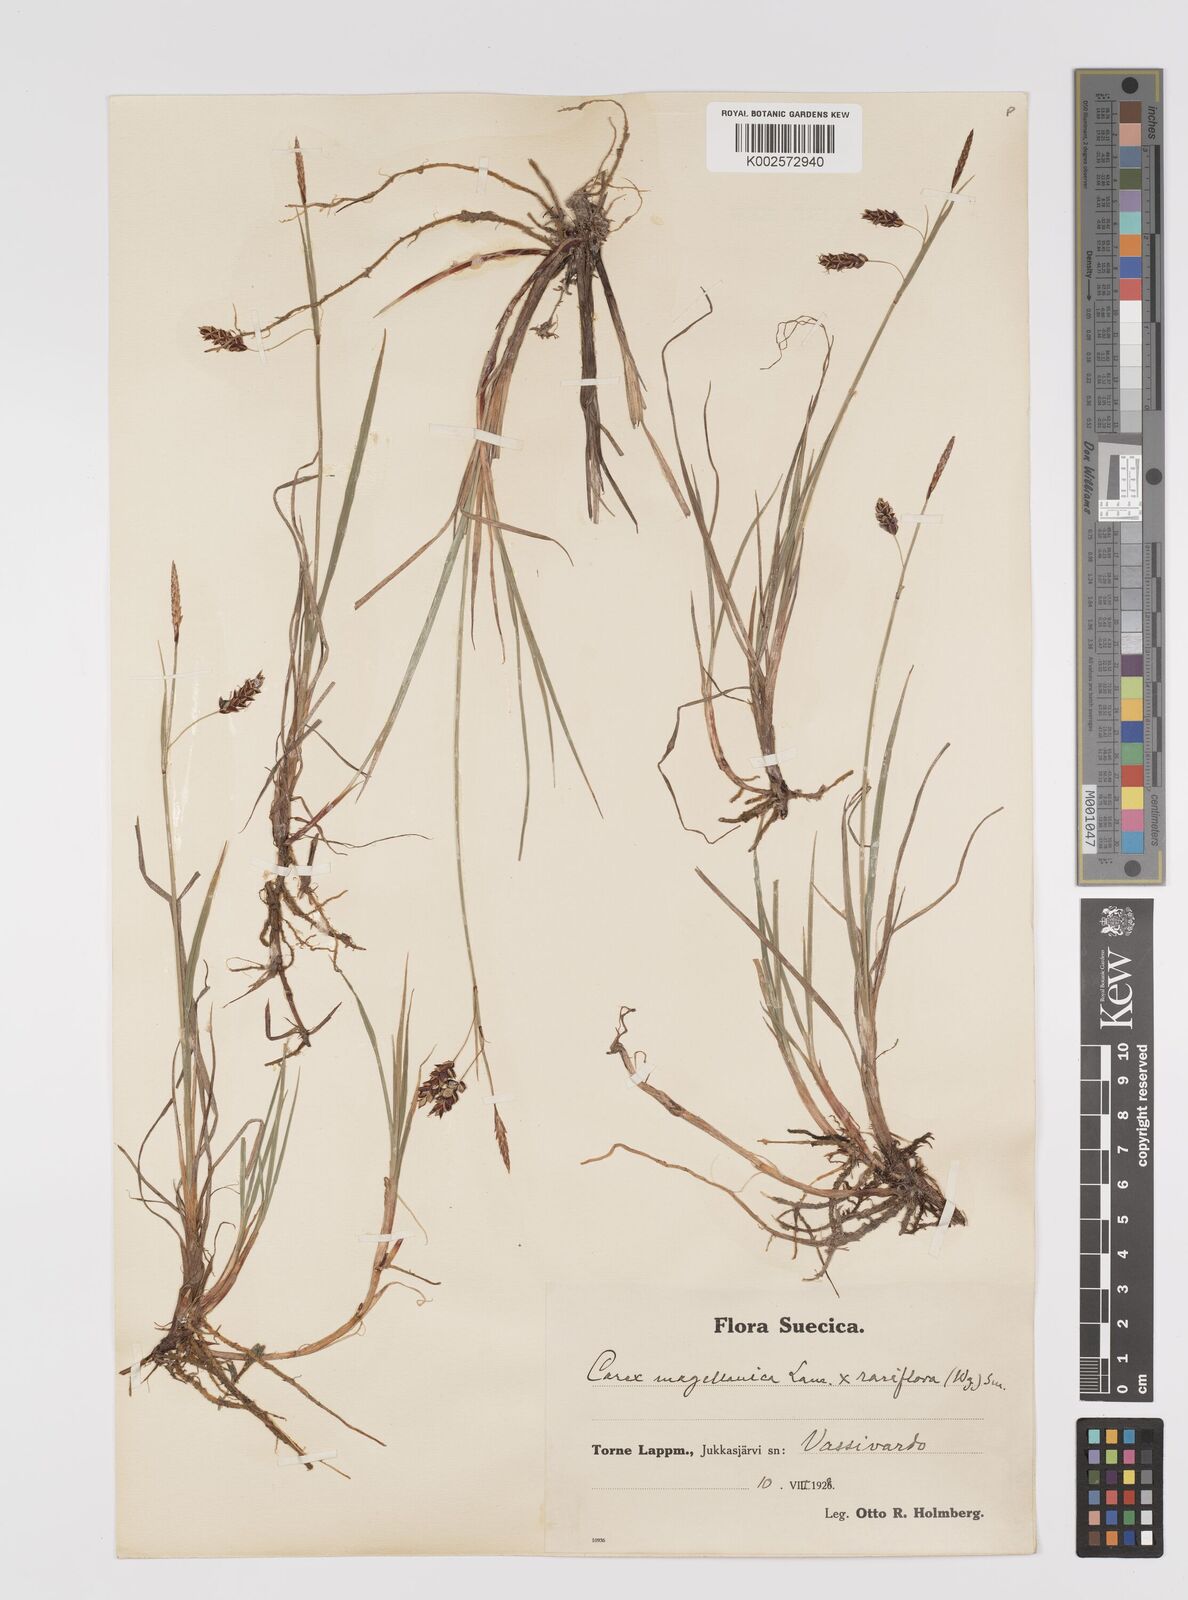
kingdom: Plantae
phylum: Tracheophyta
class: Liliopsida
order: Poales
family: Cyperaceae
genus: Carex
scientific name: Carex rariflora
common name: Loose-flowered alpine sedge
